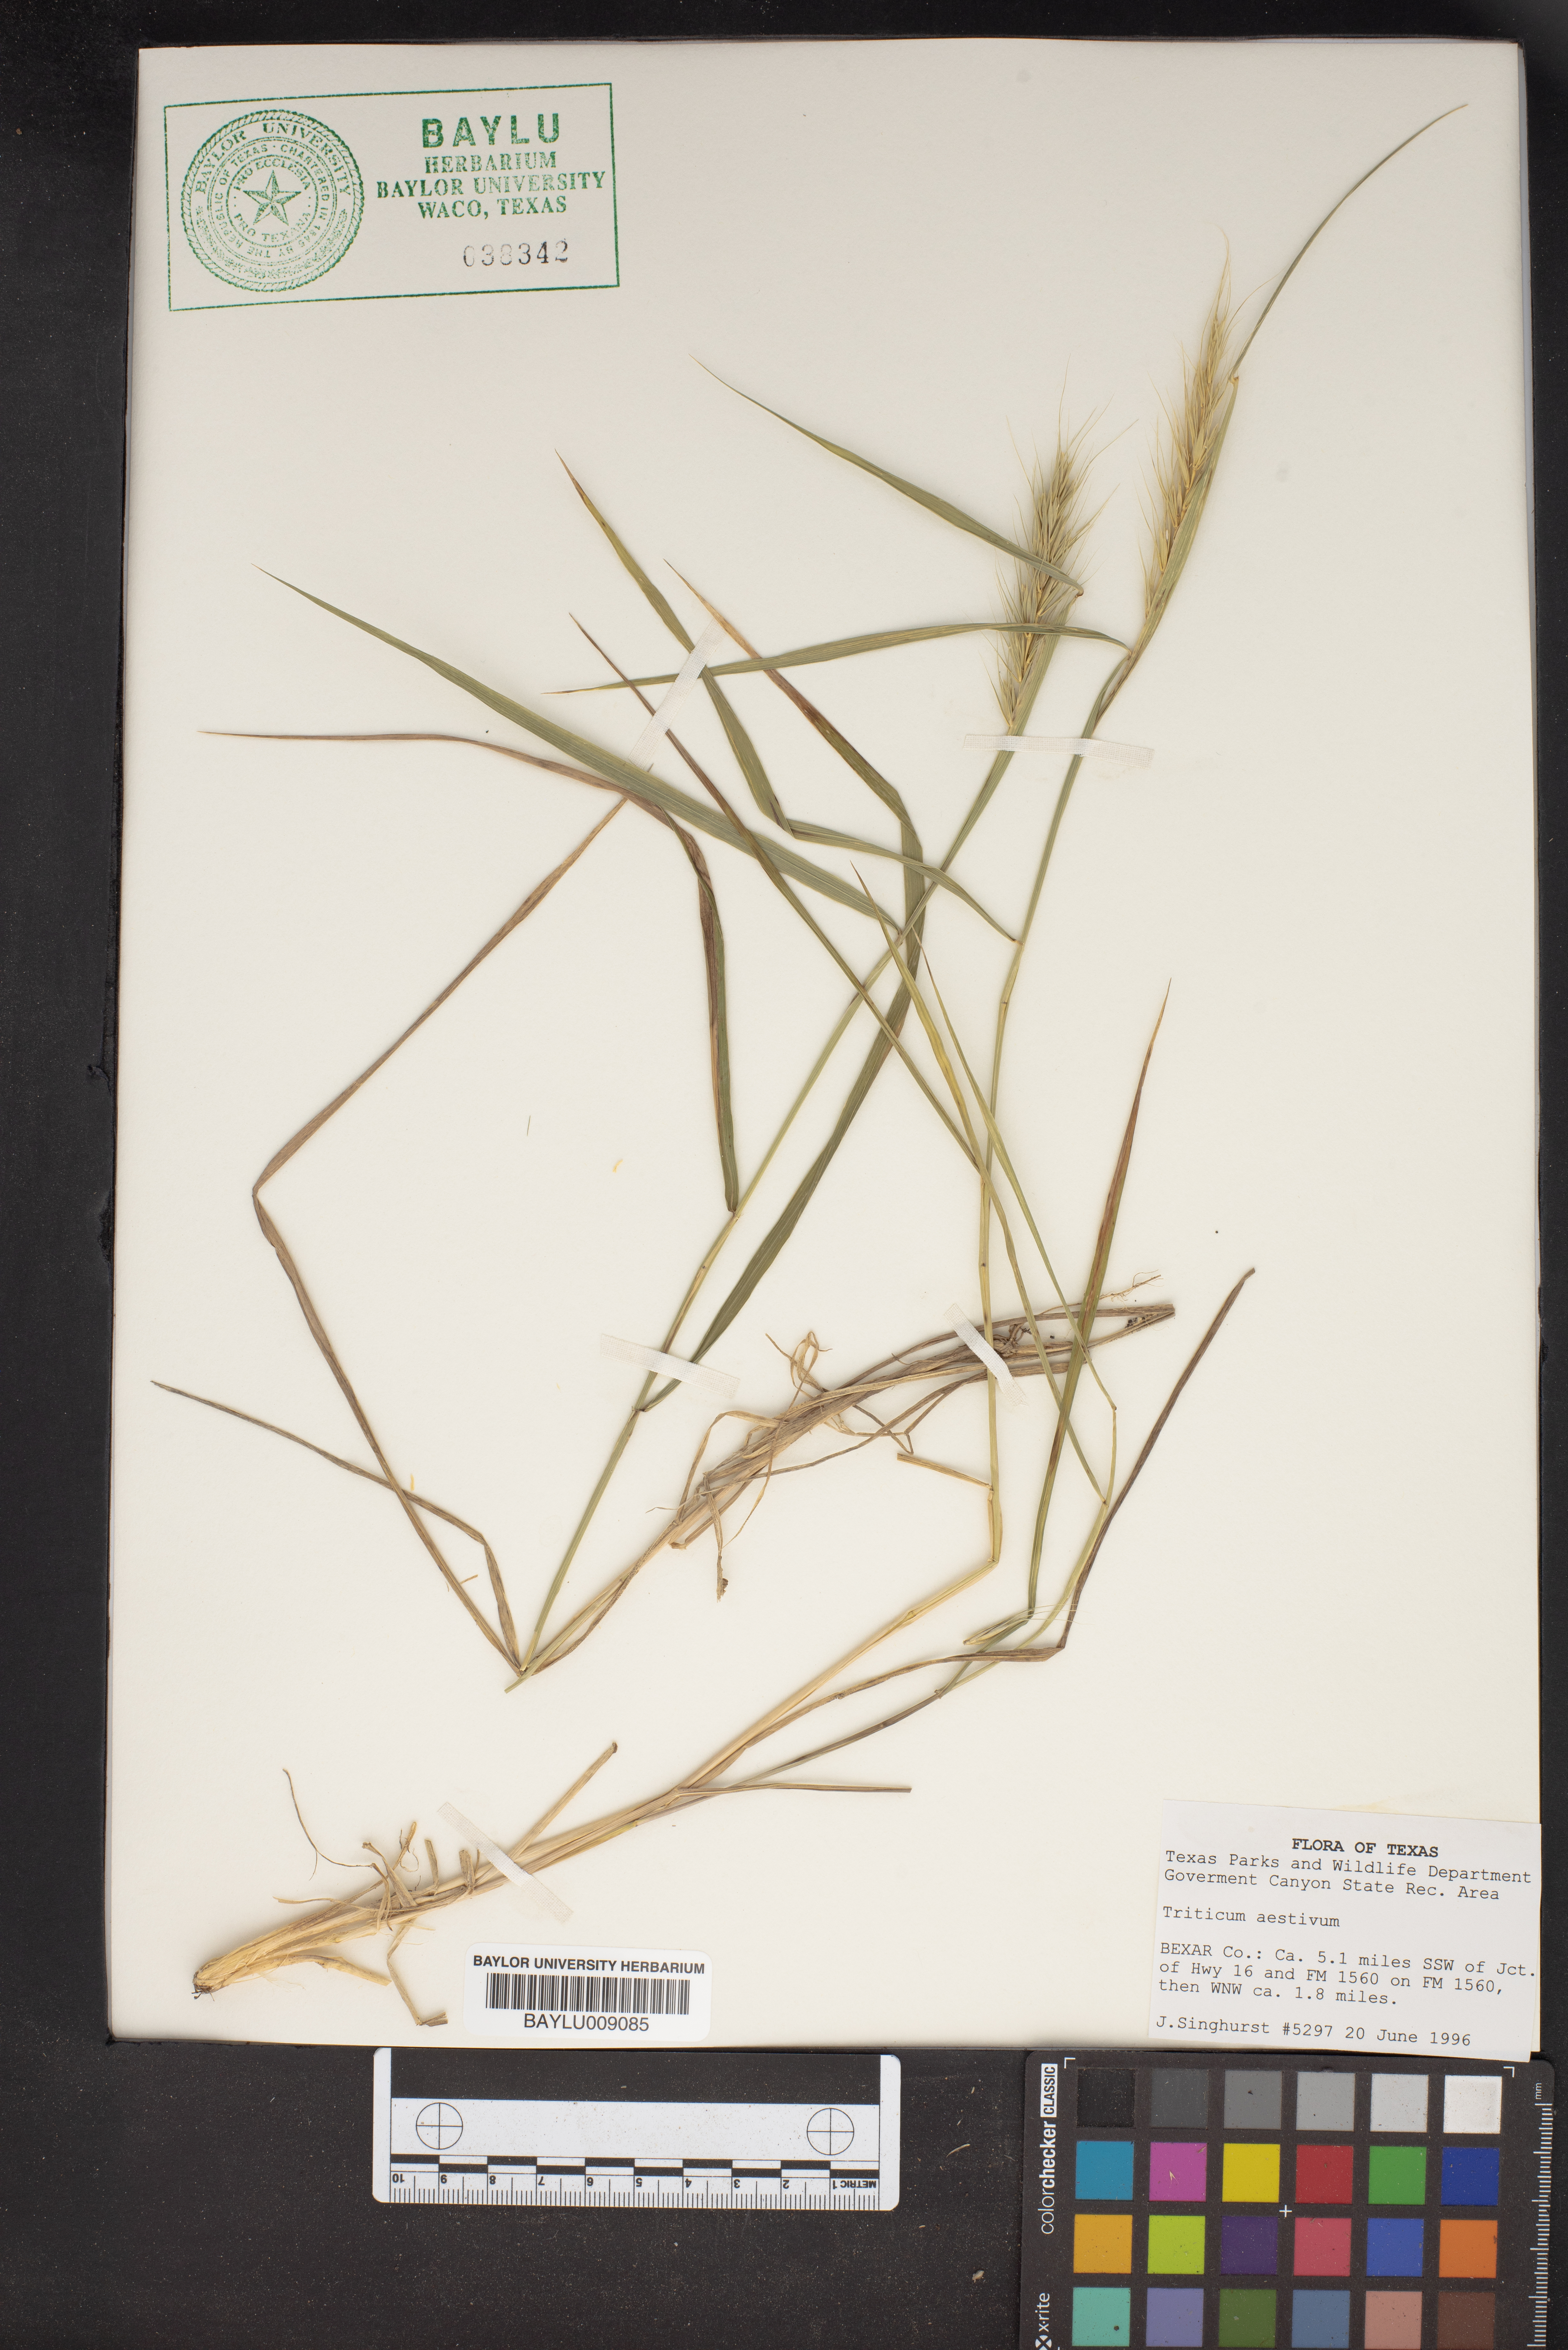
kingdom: Plantae
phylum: Tracheophyta
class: Liliopsida
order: Poales
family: Poaceae
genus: Triticum
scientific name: Triticum aestivum
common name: Common wheat
